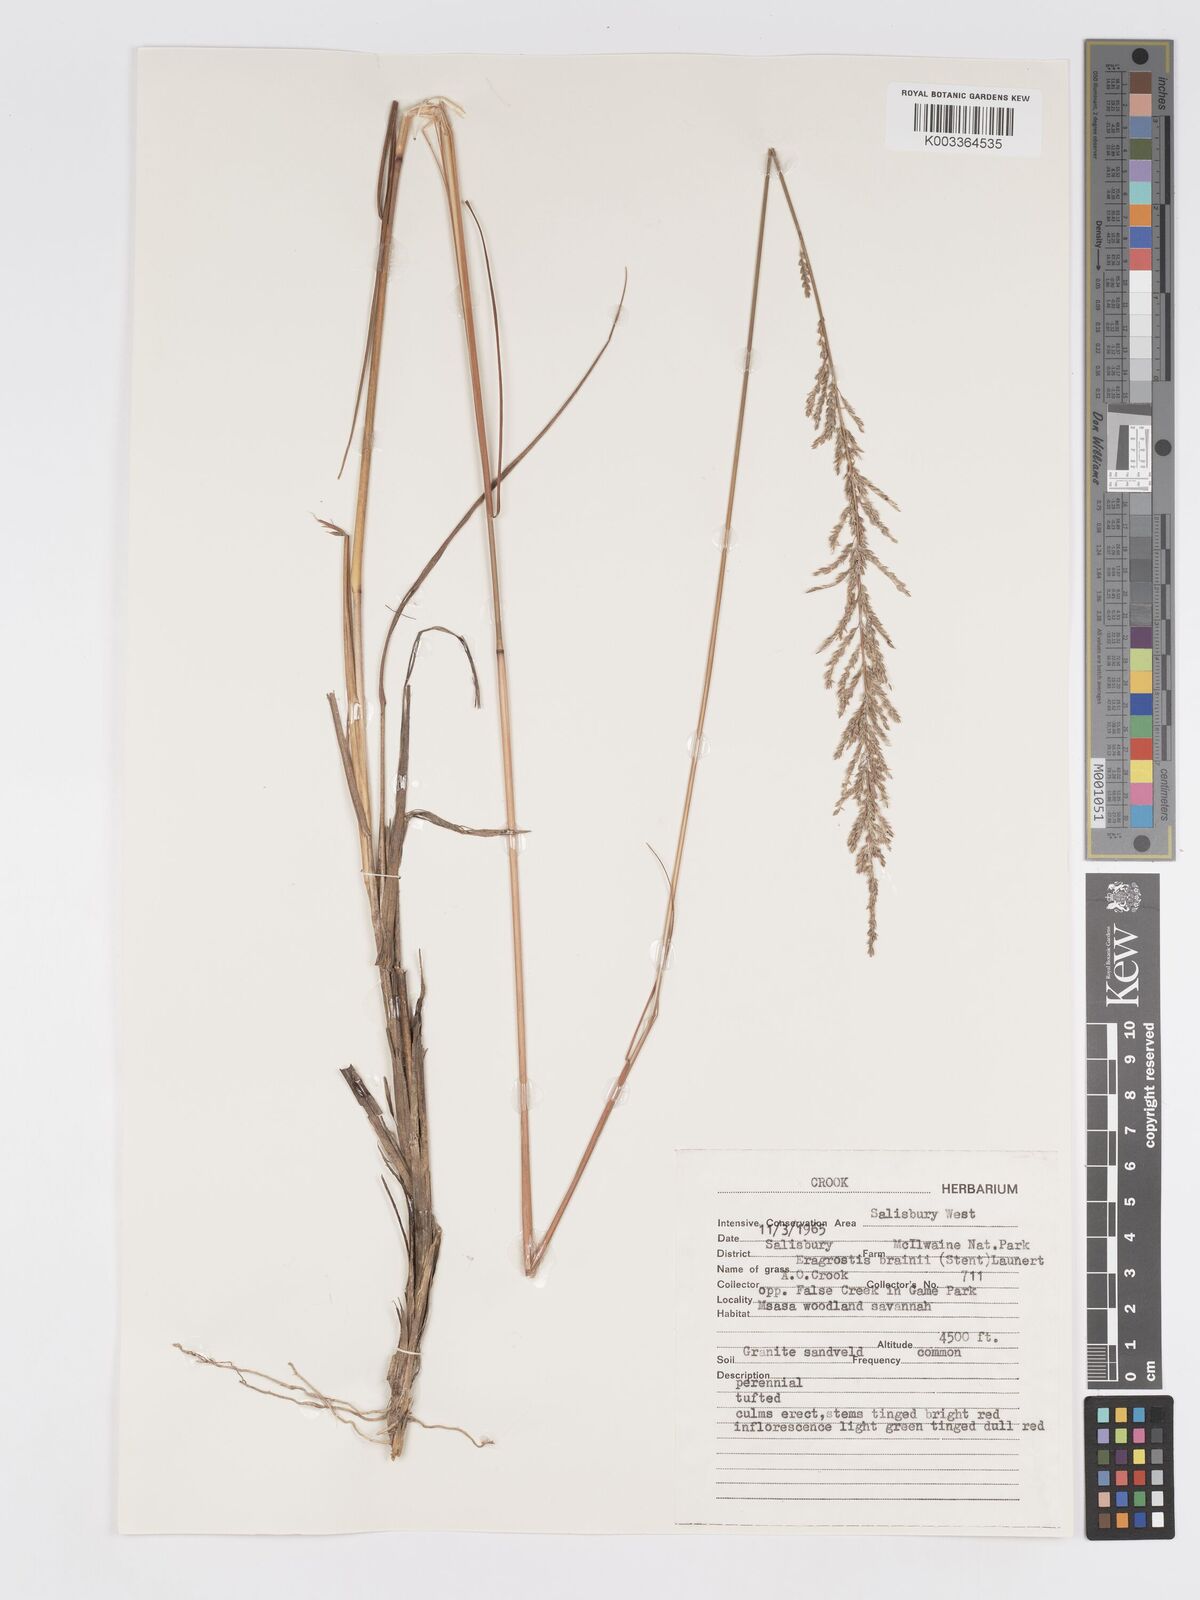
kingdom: Plantae
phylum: Tracheophyta
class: Liliopsida
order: Poales
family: Poaceae
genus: Eragrostis
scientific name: Eragrostis brainii
